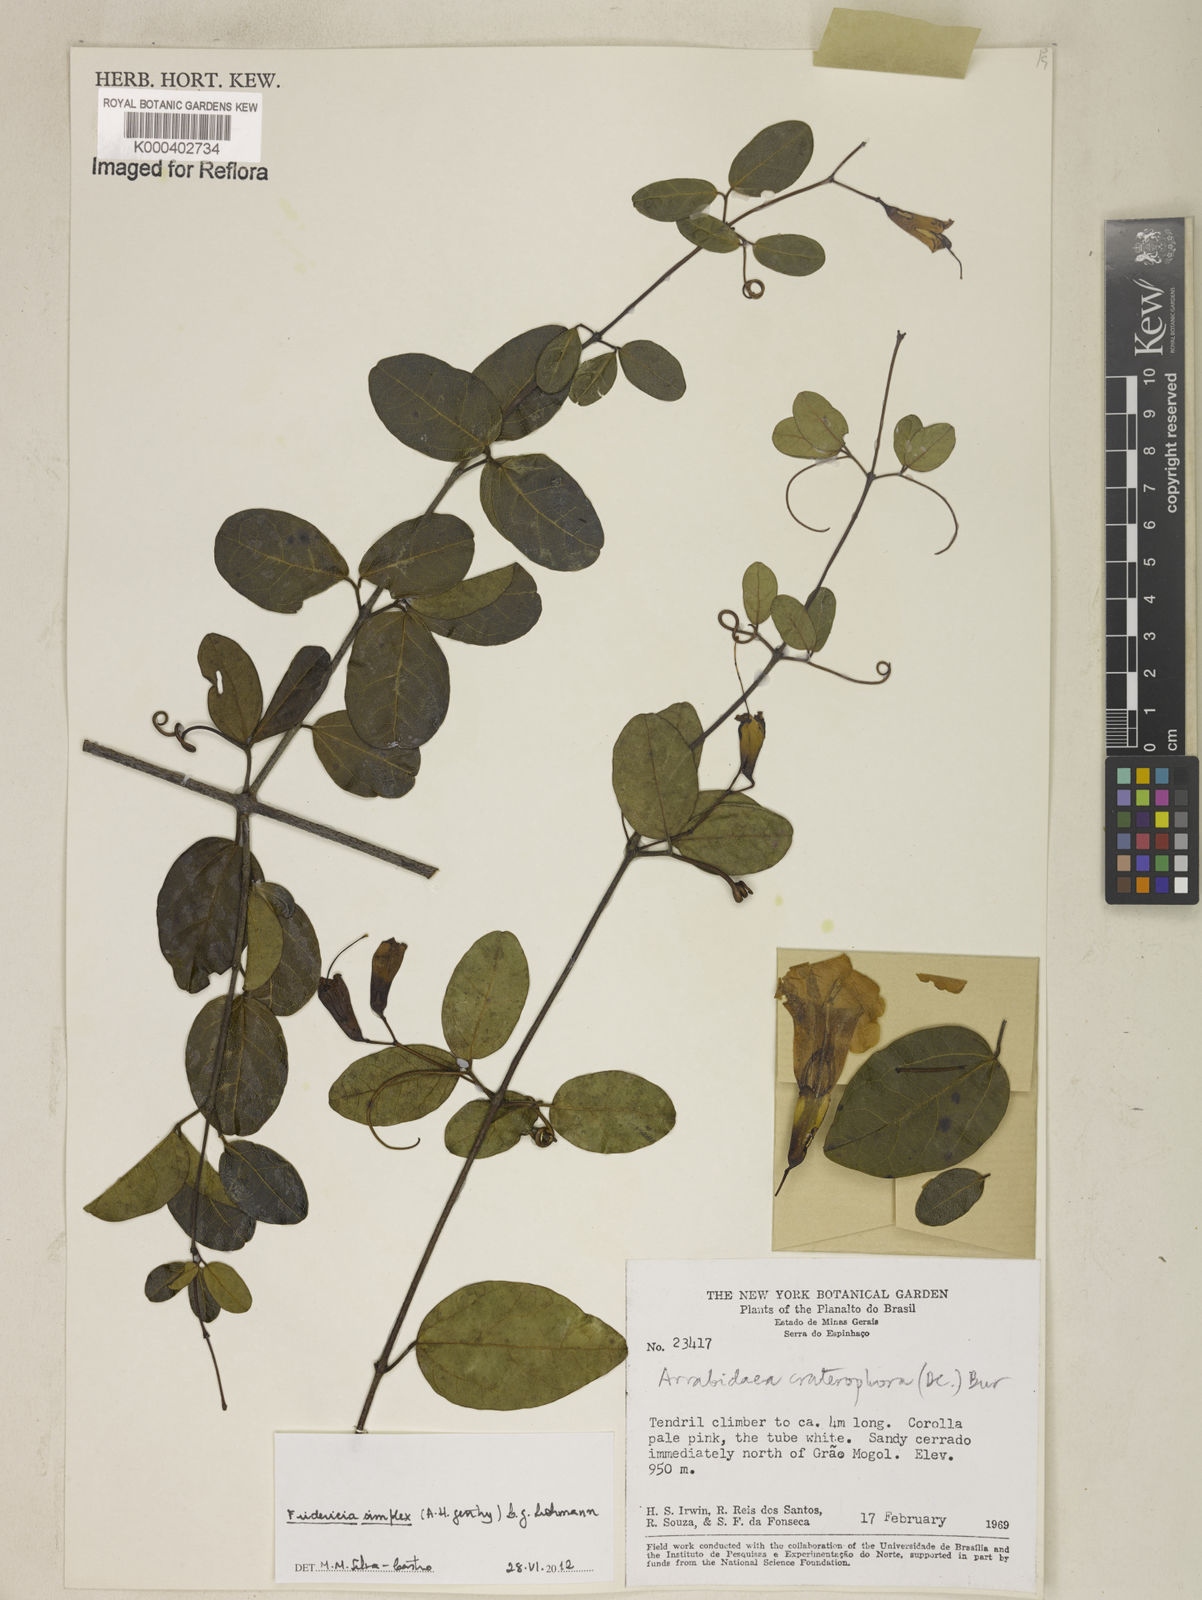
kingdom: Plantae
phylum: Tracheophyta
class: Magnoliopsida
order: Lamiales
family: Bignoniaceae
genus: Fridericia
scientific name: Fridericia simplex
